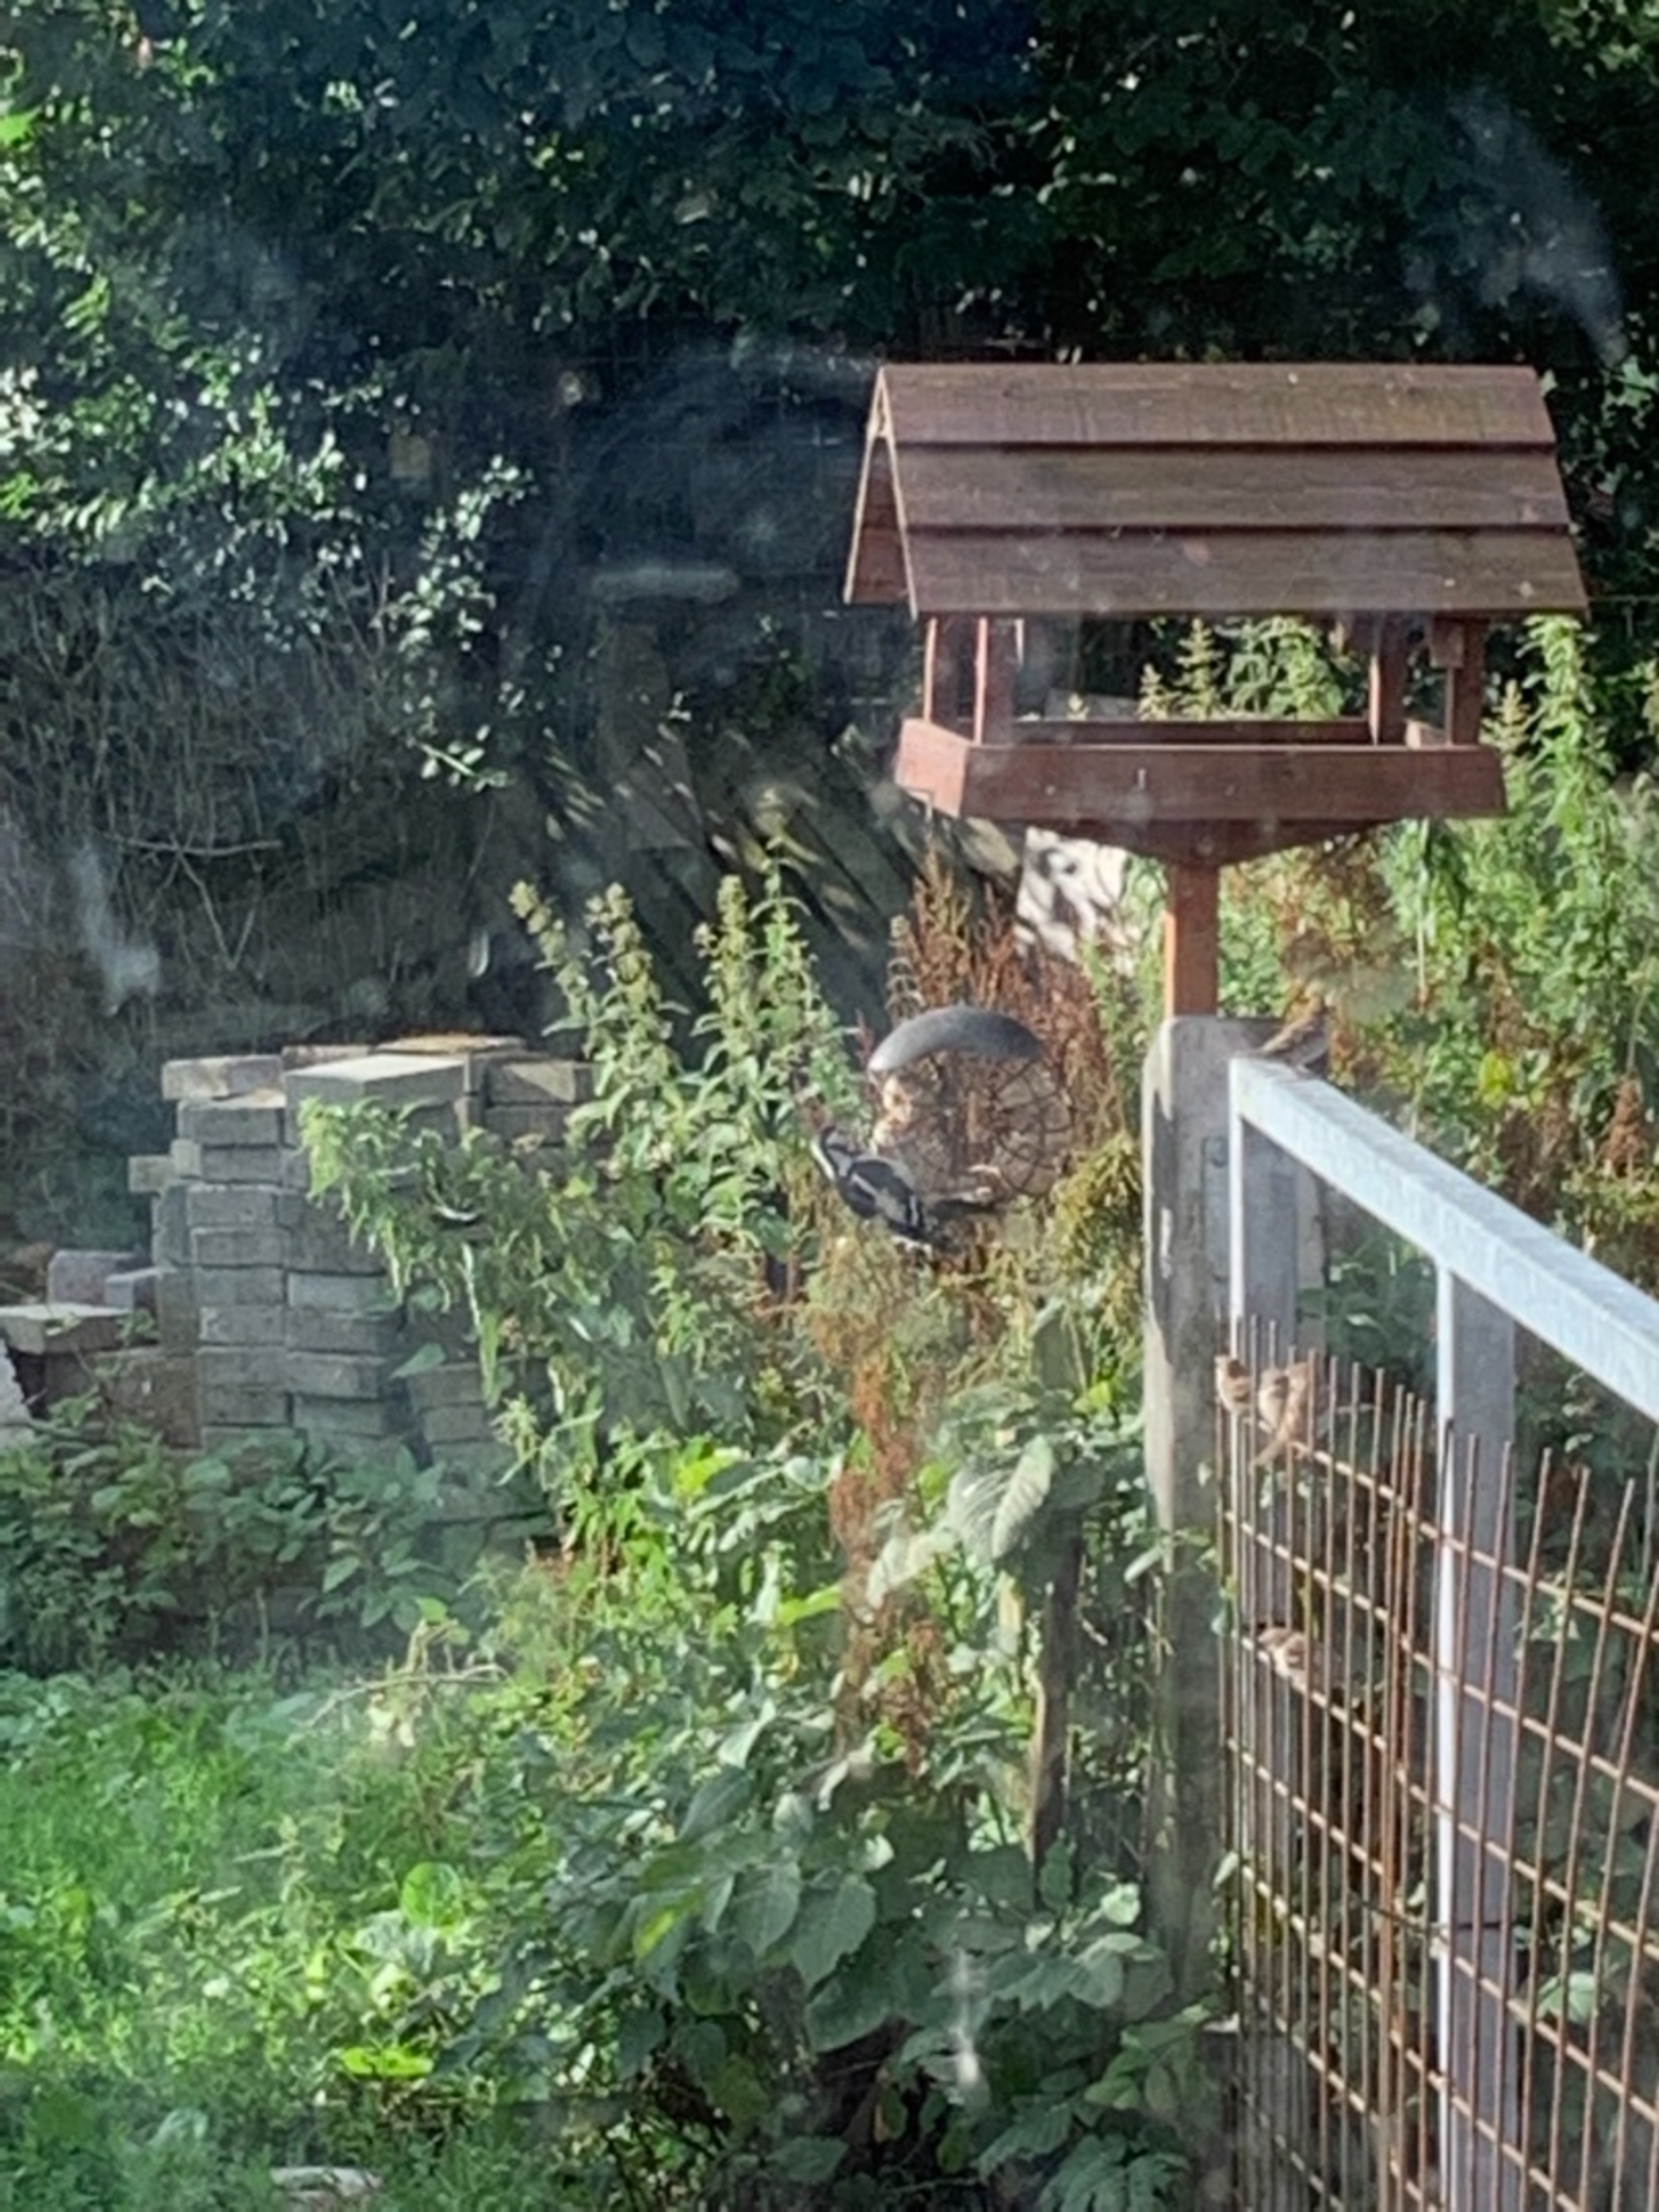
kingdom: Animalia
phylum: Chordata
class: Aves
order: Piciformes
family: Picidae
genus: Dendrocopos
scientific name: Dendrocopos major
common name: Stor flagspætte
